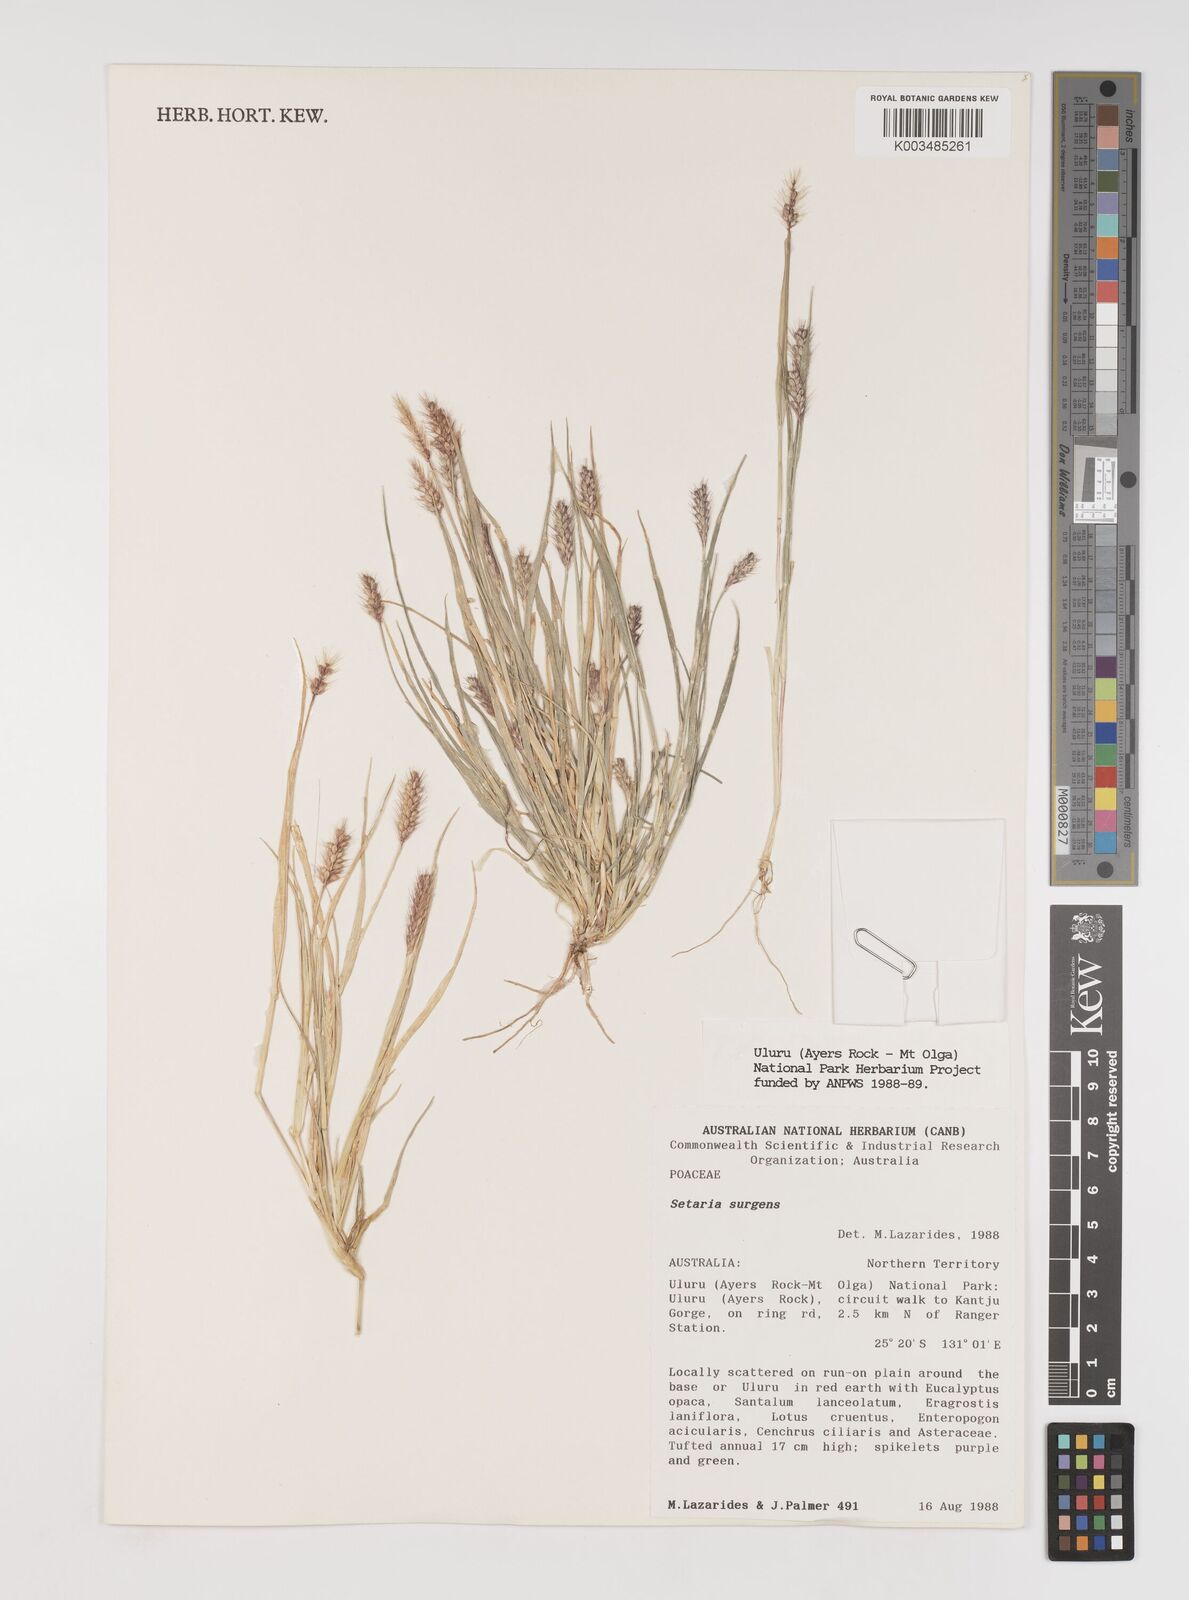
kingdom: Plantae
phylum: Tracheophyta
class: Liliopsida
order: Poales
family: Poaceae
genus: Setaria
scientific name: Setaria surgens
